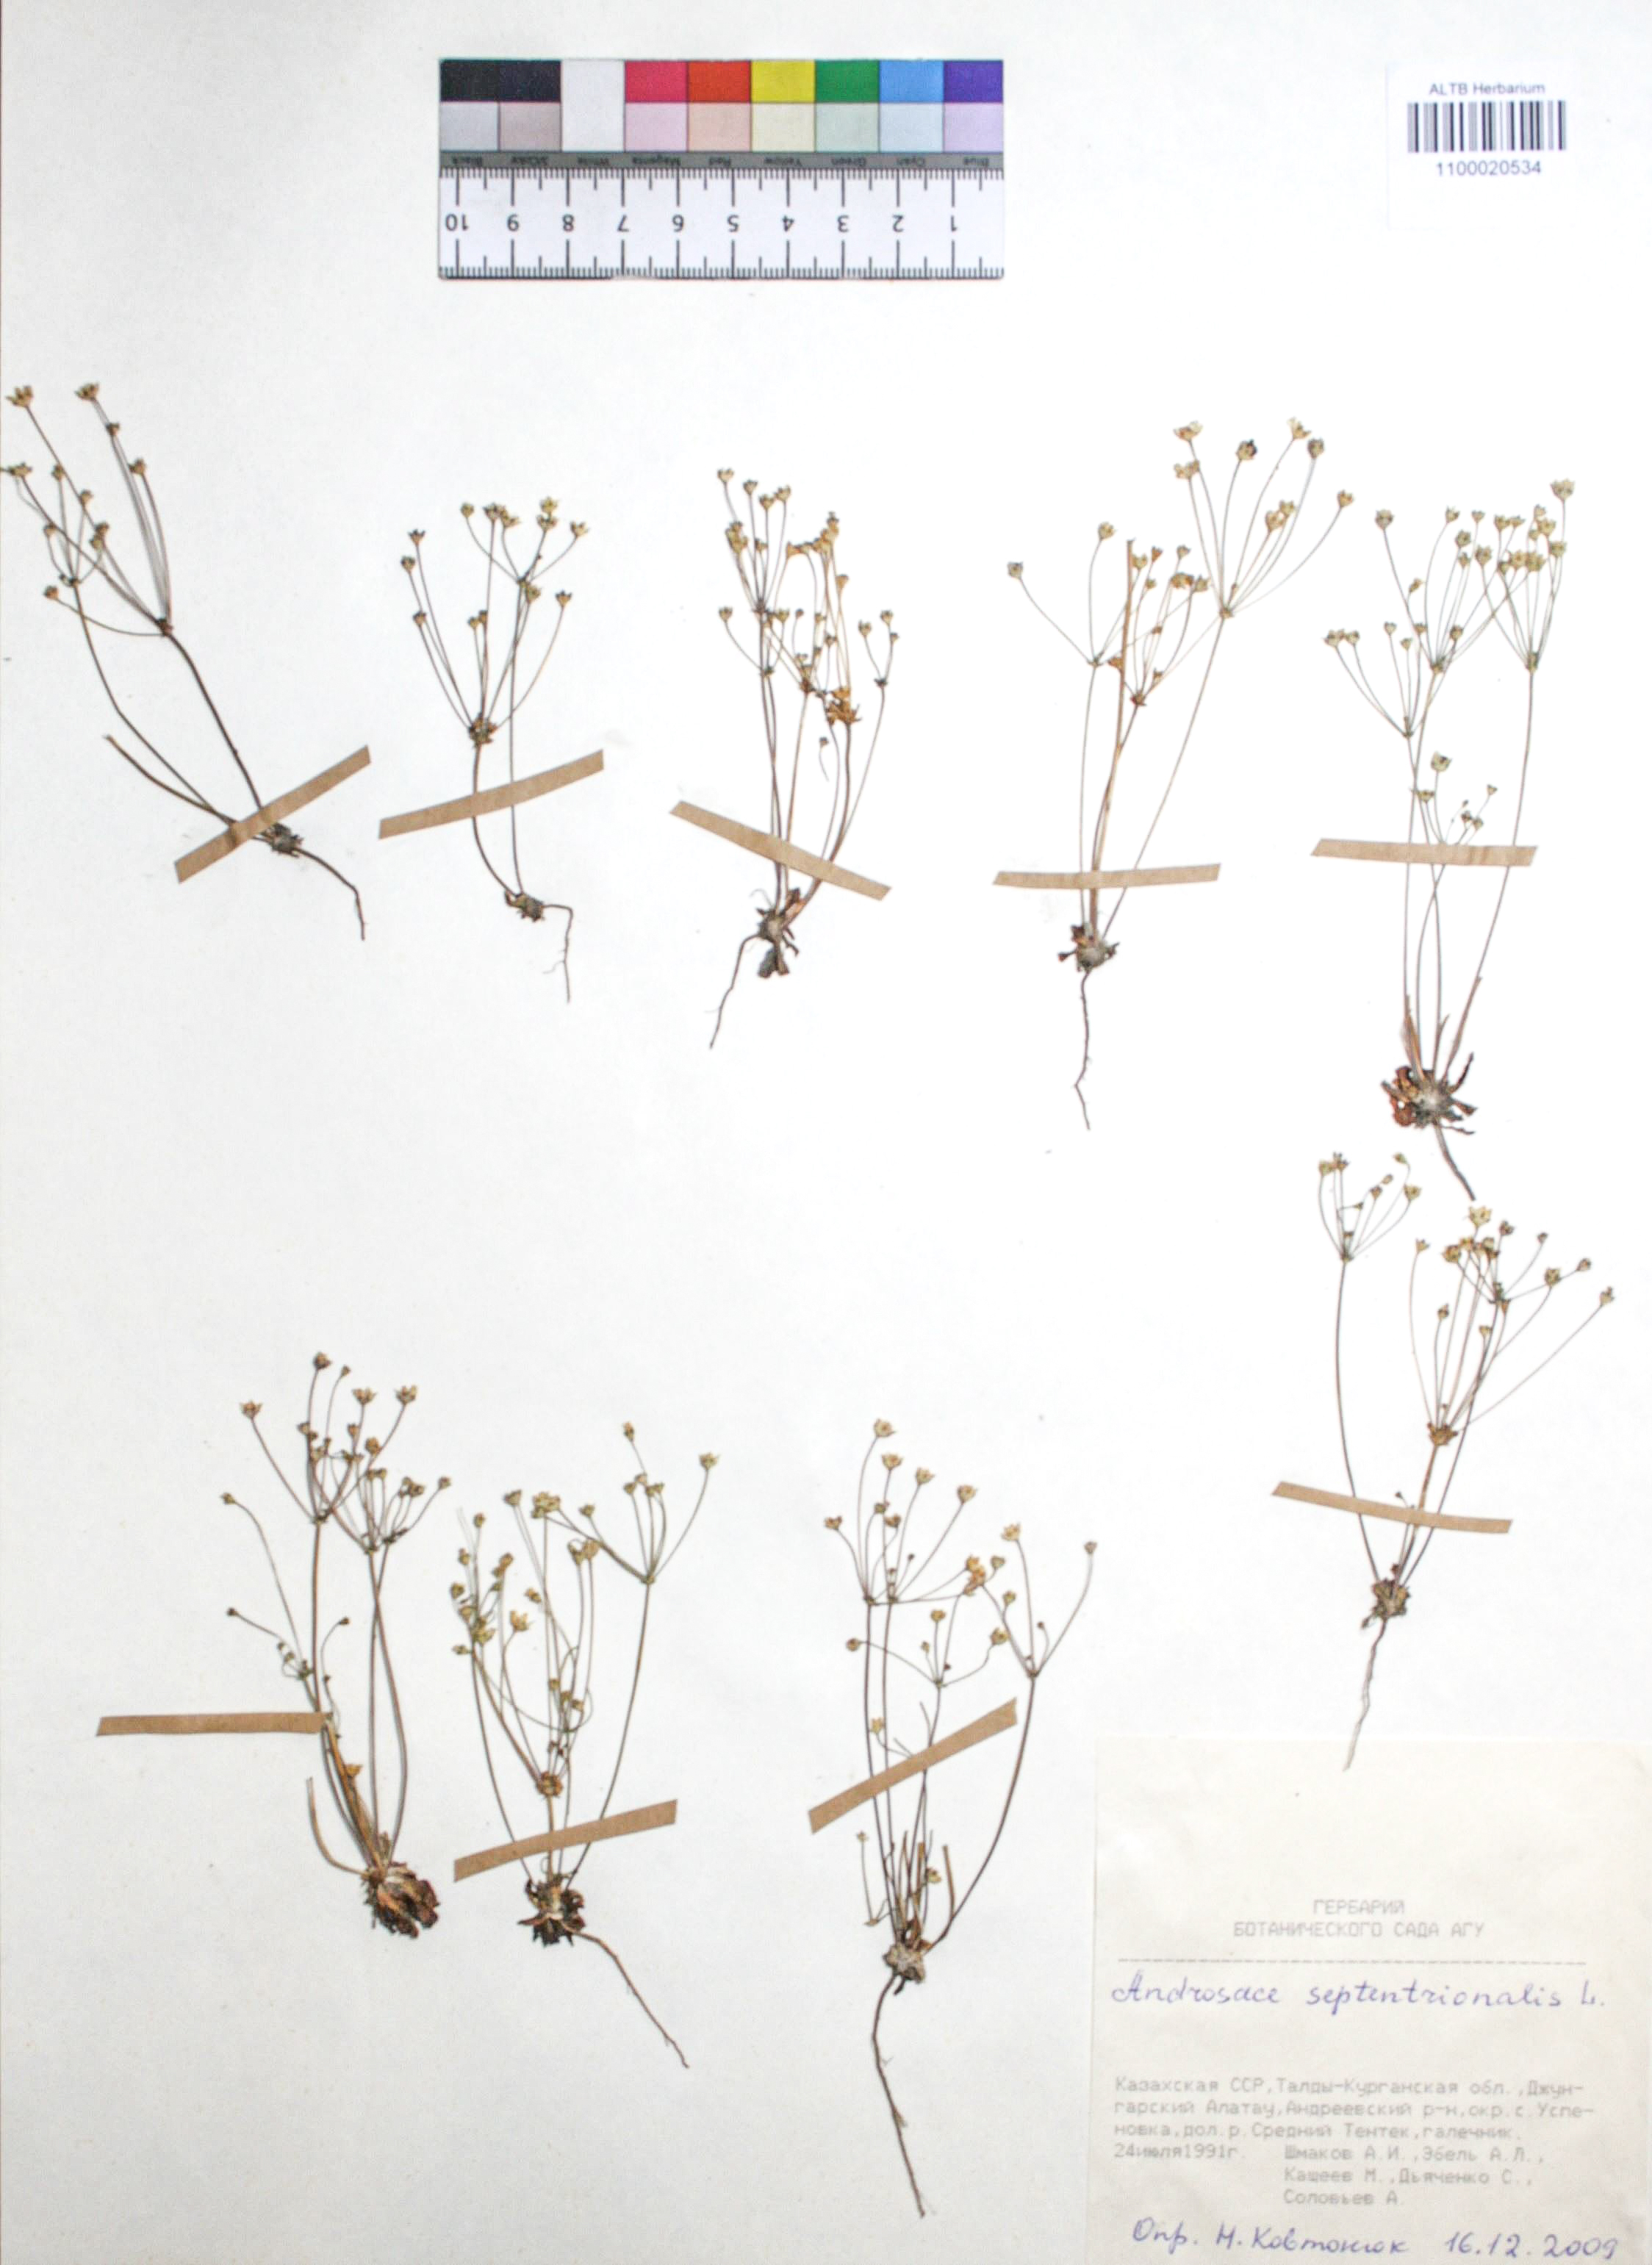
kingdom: Plantae
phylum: Tracheophyta
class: Magnoliopsida
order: Ericales
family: Primulaceae
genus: Androsace
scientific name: Androsace septentrionalis
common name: Hairy northern fairy-candelabra
